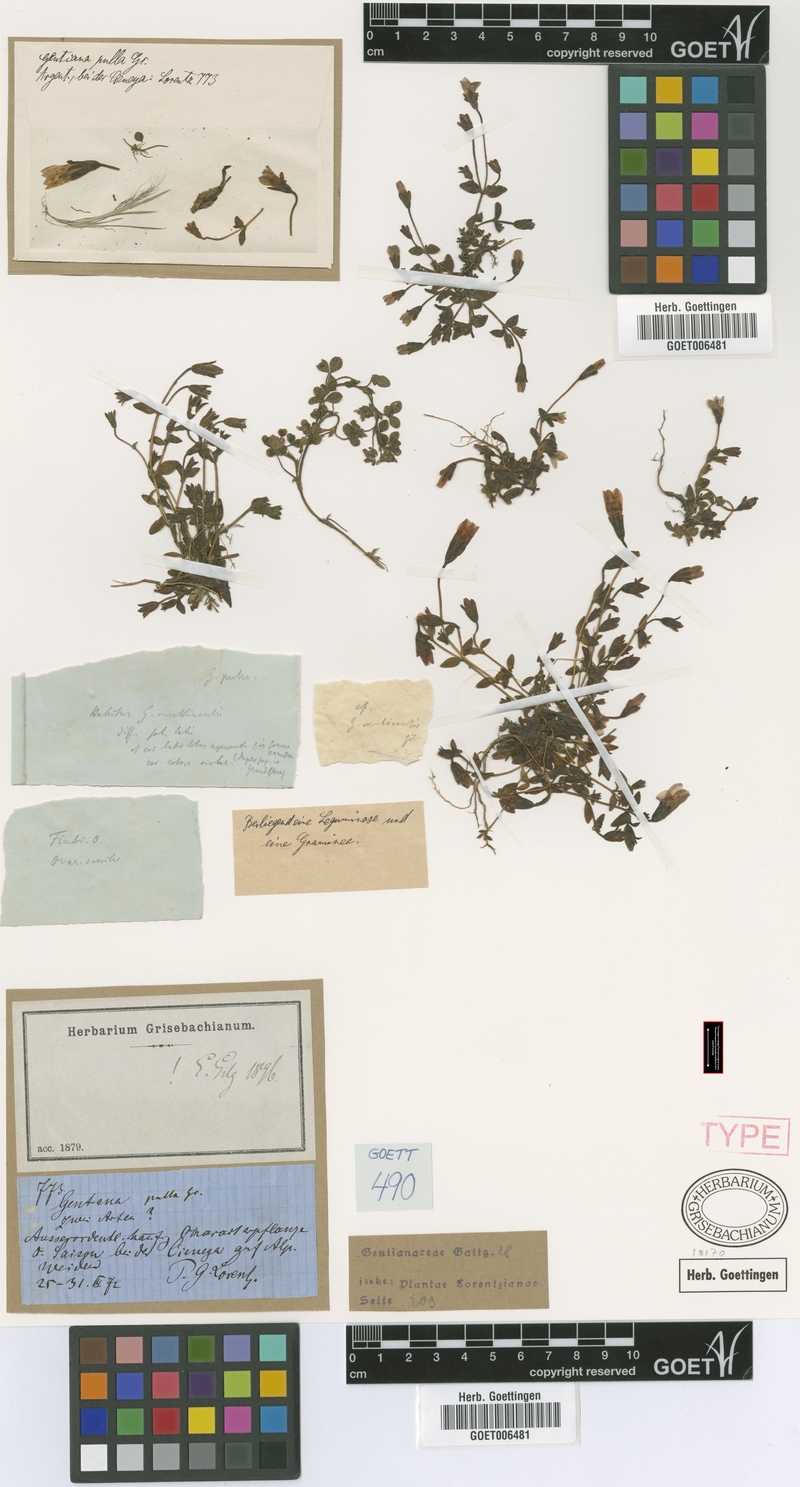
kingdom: Plantae
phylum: Tracheophyta
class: Magnoliopsida
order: Gentianales
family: Gentianaceae
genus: Gentianella
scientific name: Gentianella pulla
